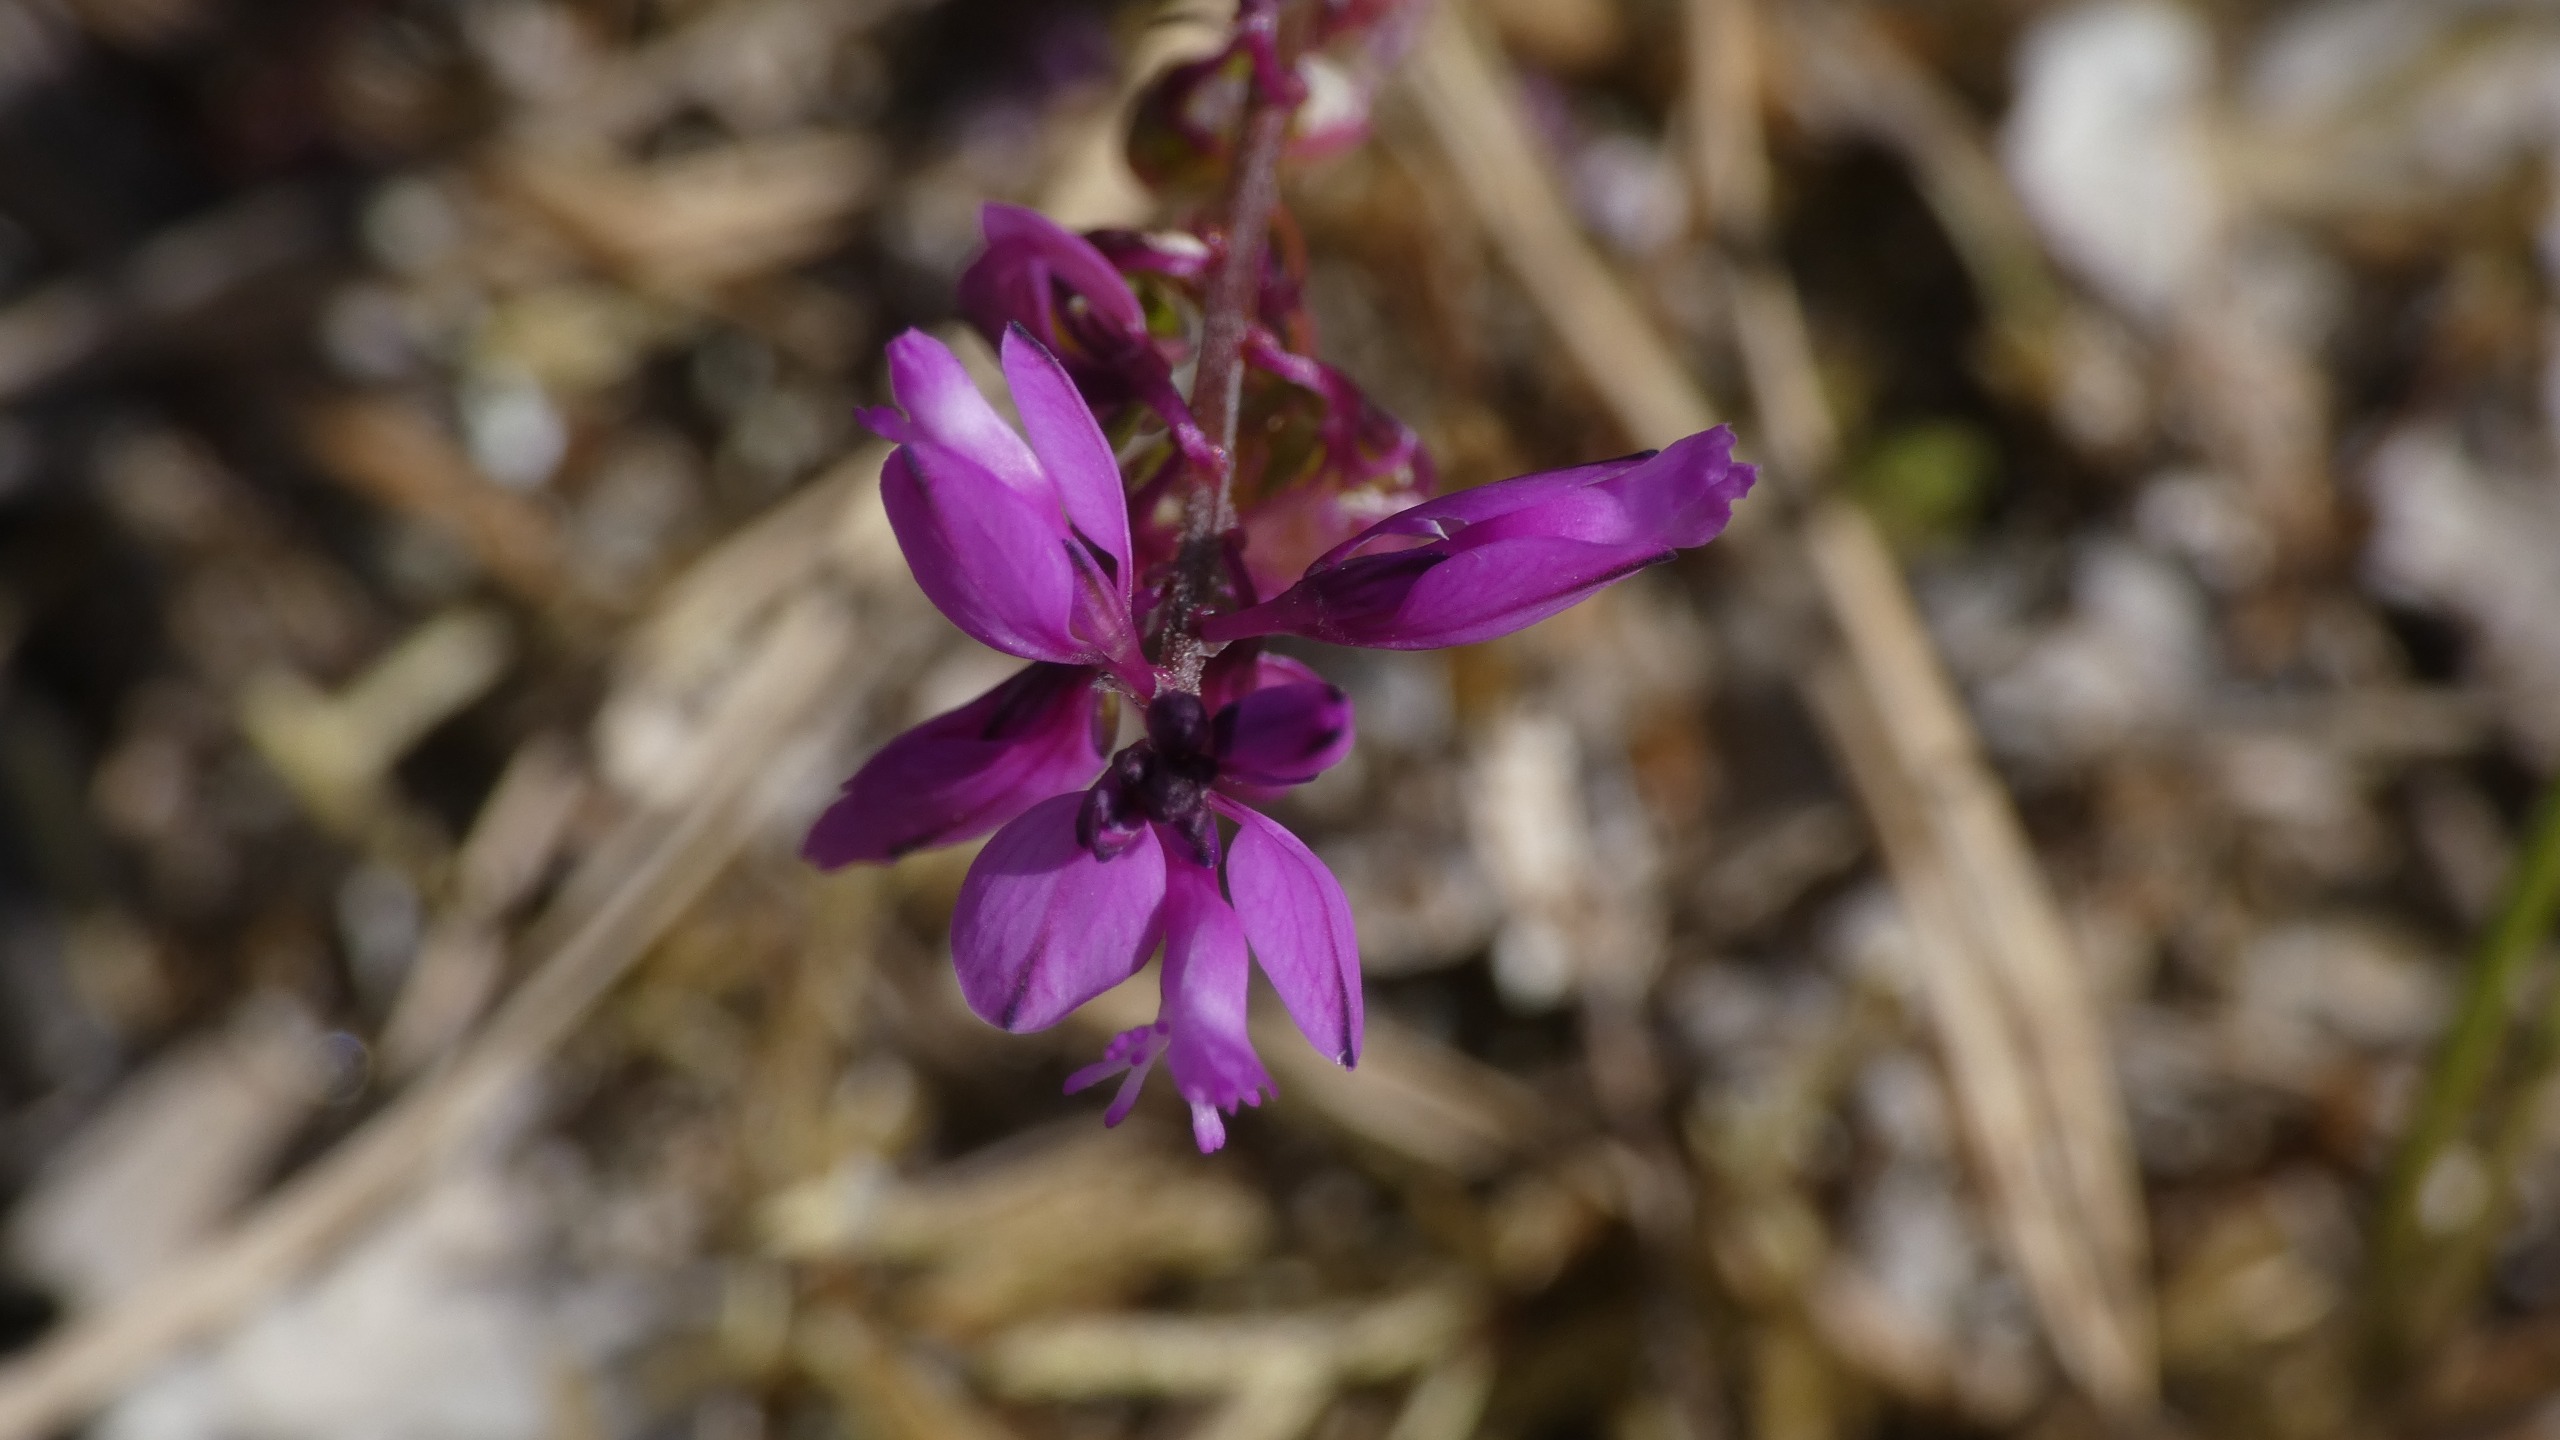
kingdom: Plantae
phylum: Tracheophyta
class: Magnoliopsida
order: Fabales
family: Polygalaceae
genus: Polygala
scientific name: Polygala vulgaris
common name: Almindelig mælkeurt
